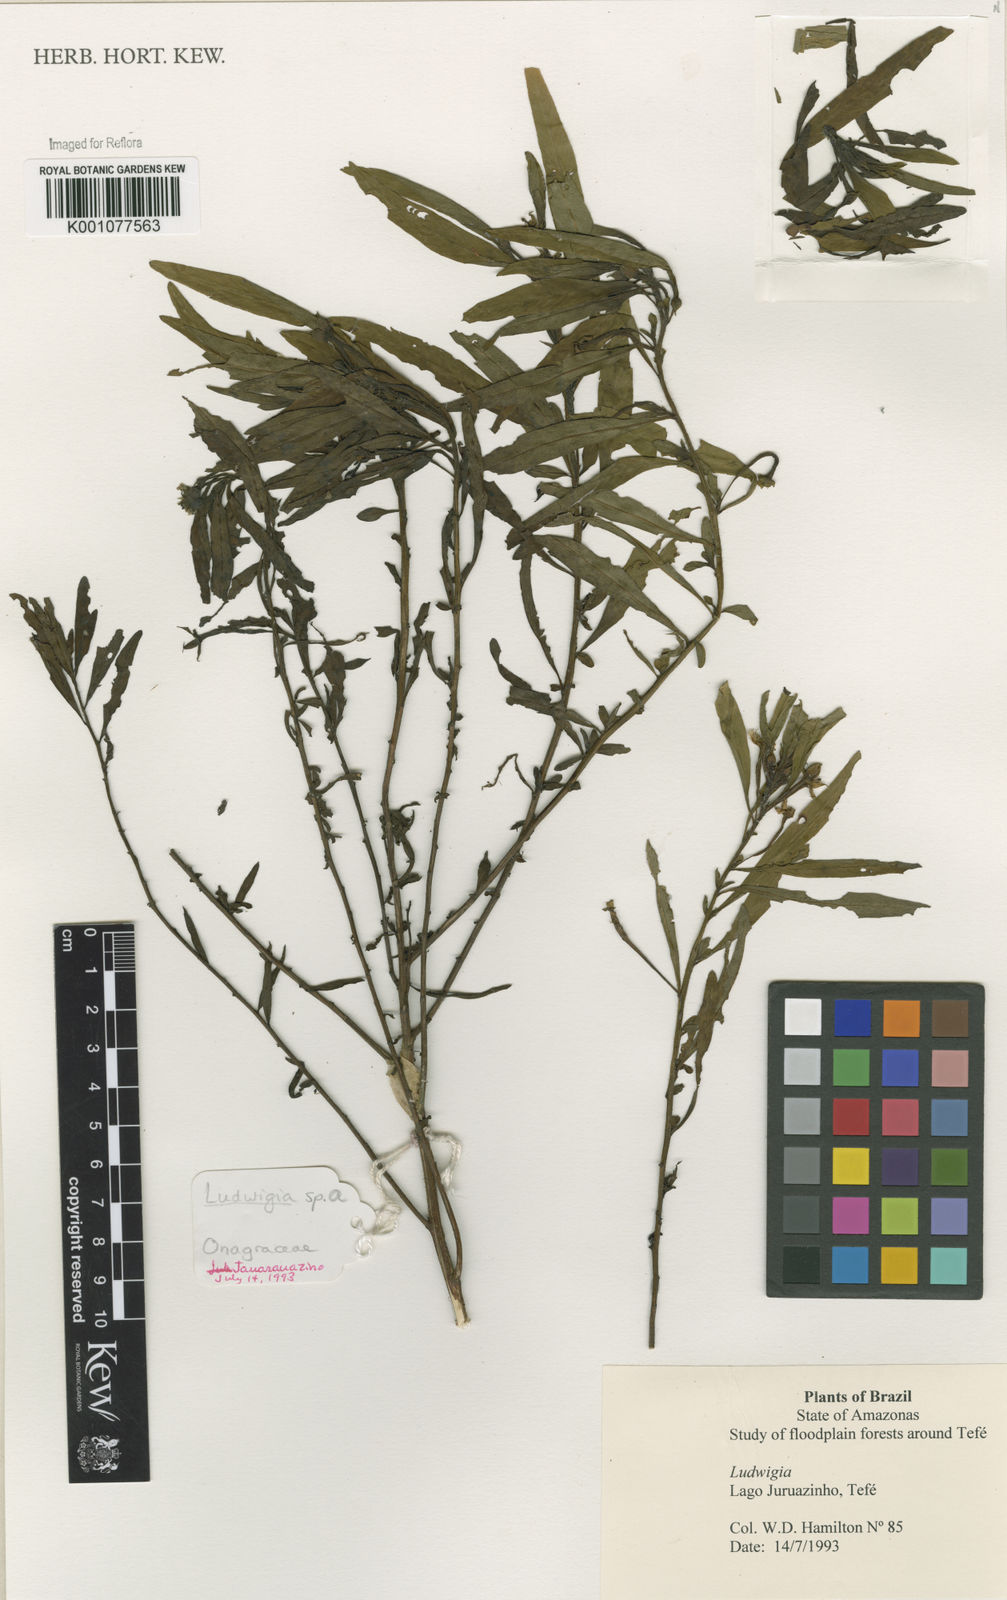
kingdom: Plantae
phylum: Tracheophyta
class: Magnoliopsida
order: Myrtales
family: Onagraceae
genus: Ludwigia
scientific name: Ludwigia
